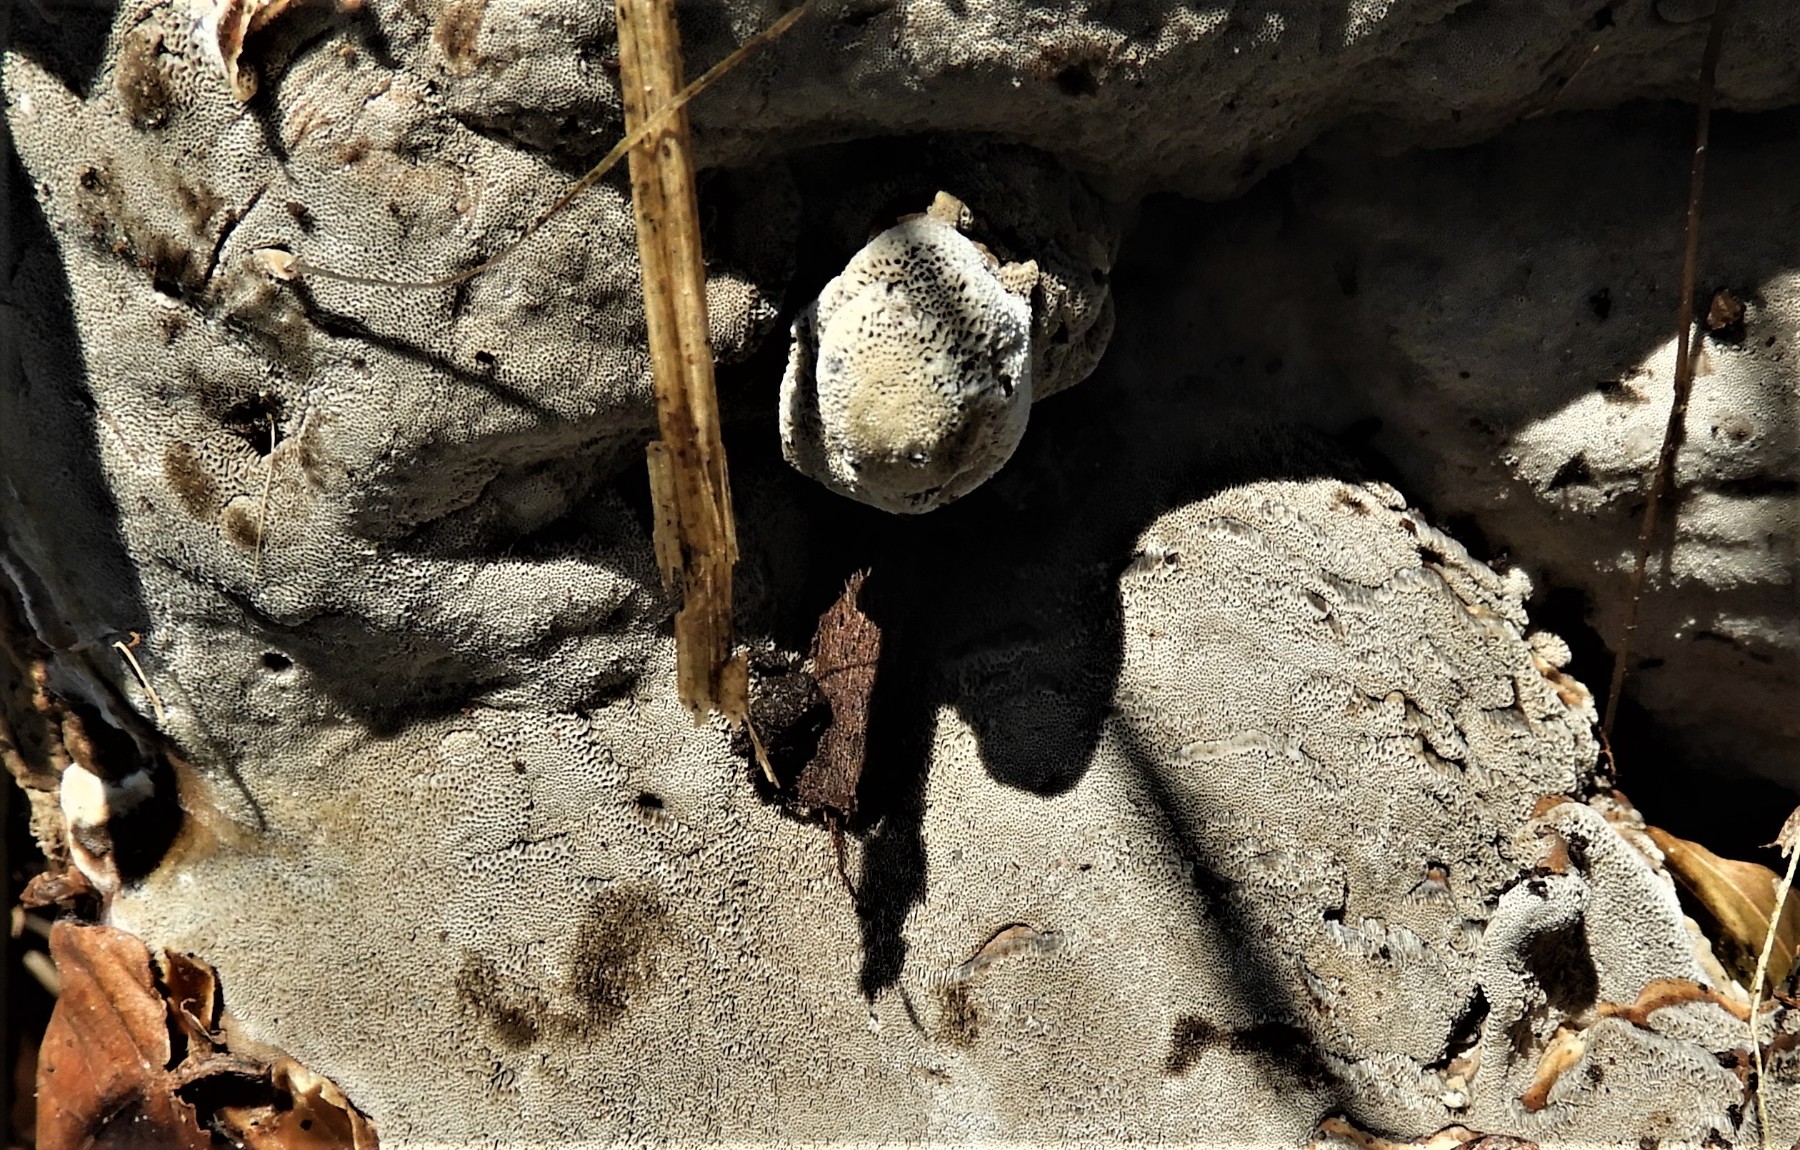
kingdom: Fungi
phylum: Basidiomycota
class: Agaricomycetes
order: Polyporales
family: Phanerochaetaceae
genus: Bjerkandera
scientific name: Bjerkandera adusta
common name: sveden sodporesvamp
